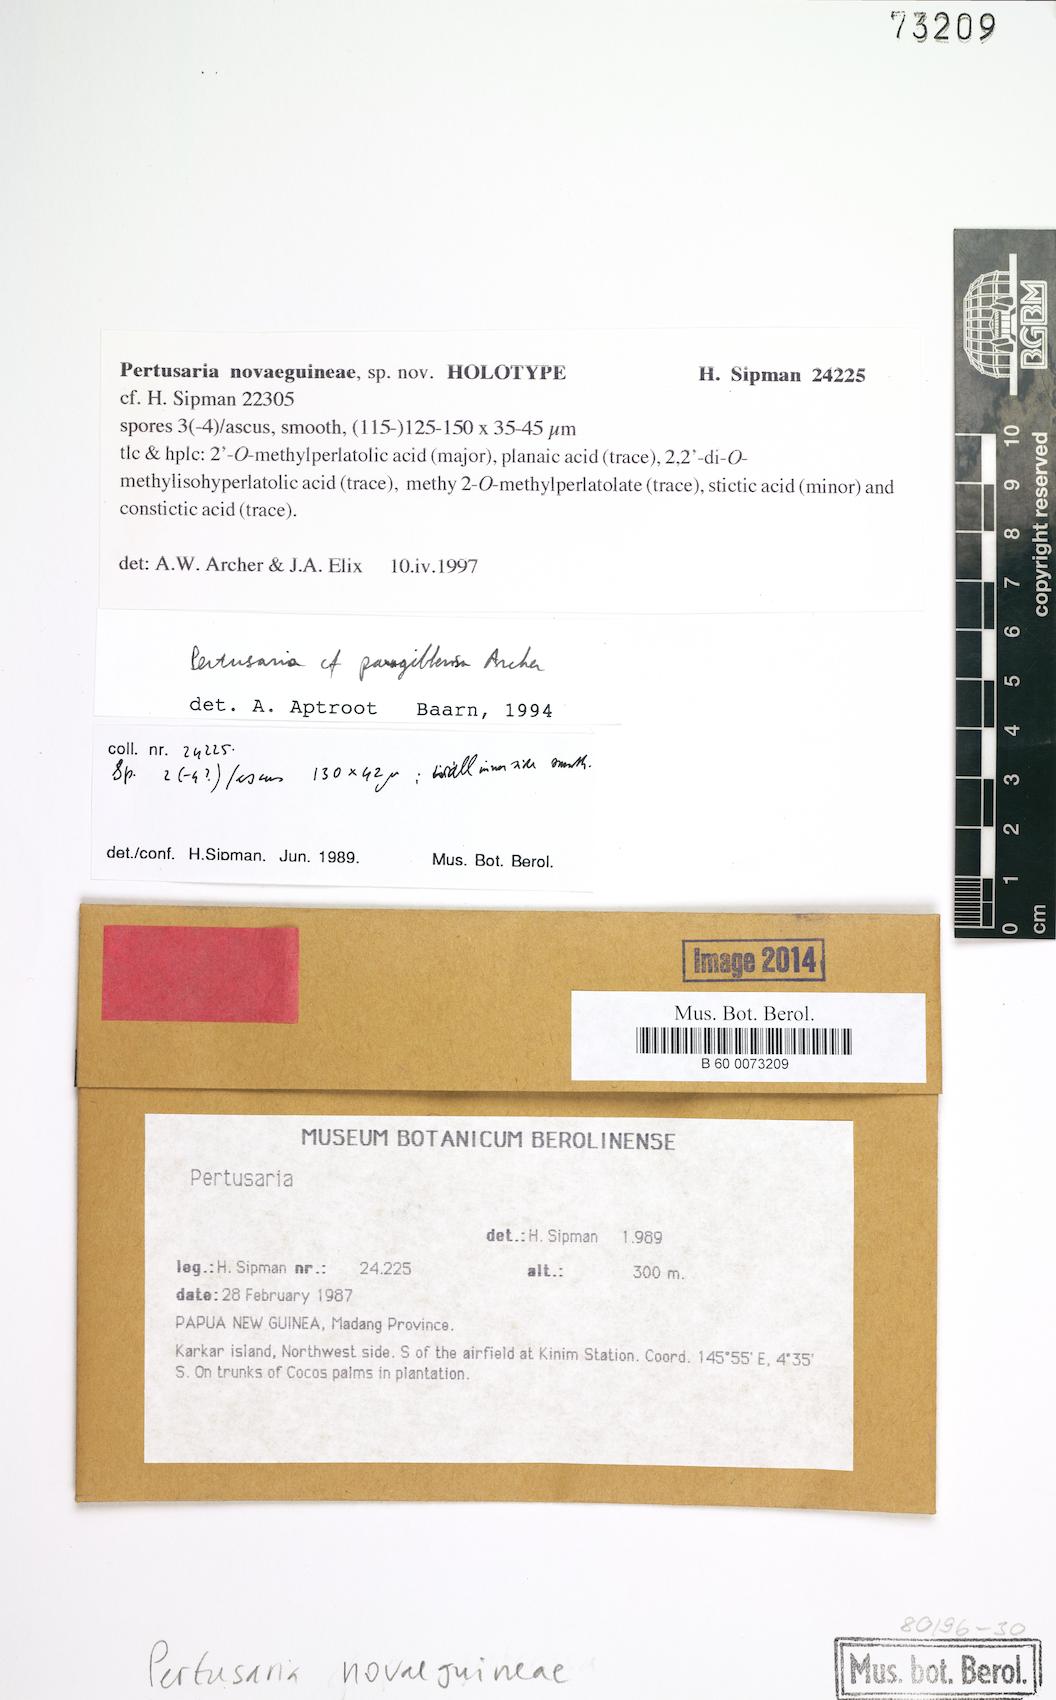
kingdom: Fungi
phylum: Ascomycota
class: Lecanoromycetes
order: Pertusariales
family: Pertusariaceae
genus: Pertusaria
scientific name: Pertusaria
